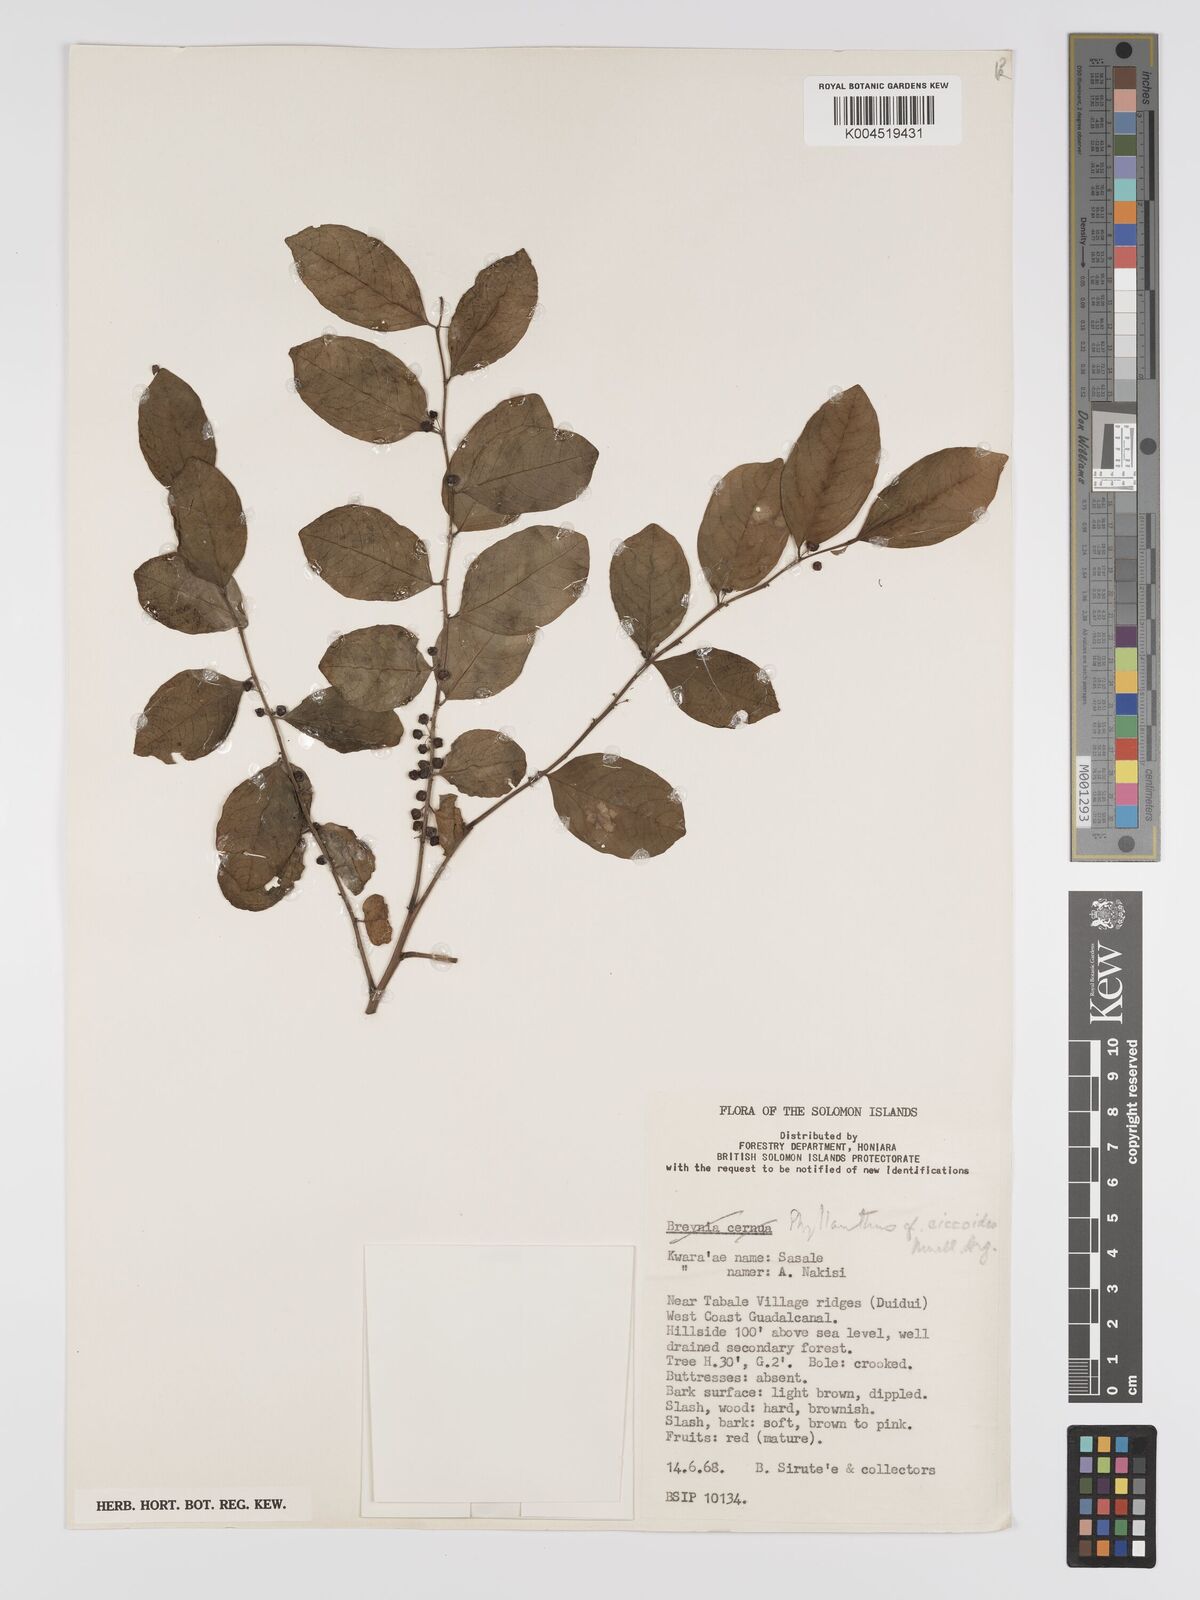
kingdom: Plantae
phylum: Tracheophyta
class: Magnoliopsida
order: Malpighiales
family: Phyllanthaceae
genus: Phyllanthus
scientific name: Phyllanthus ciccoides
